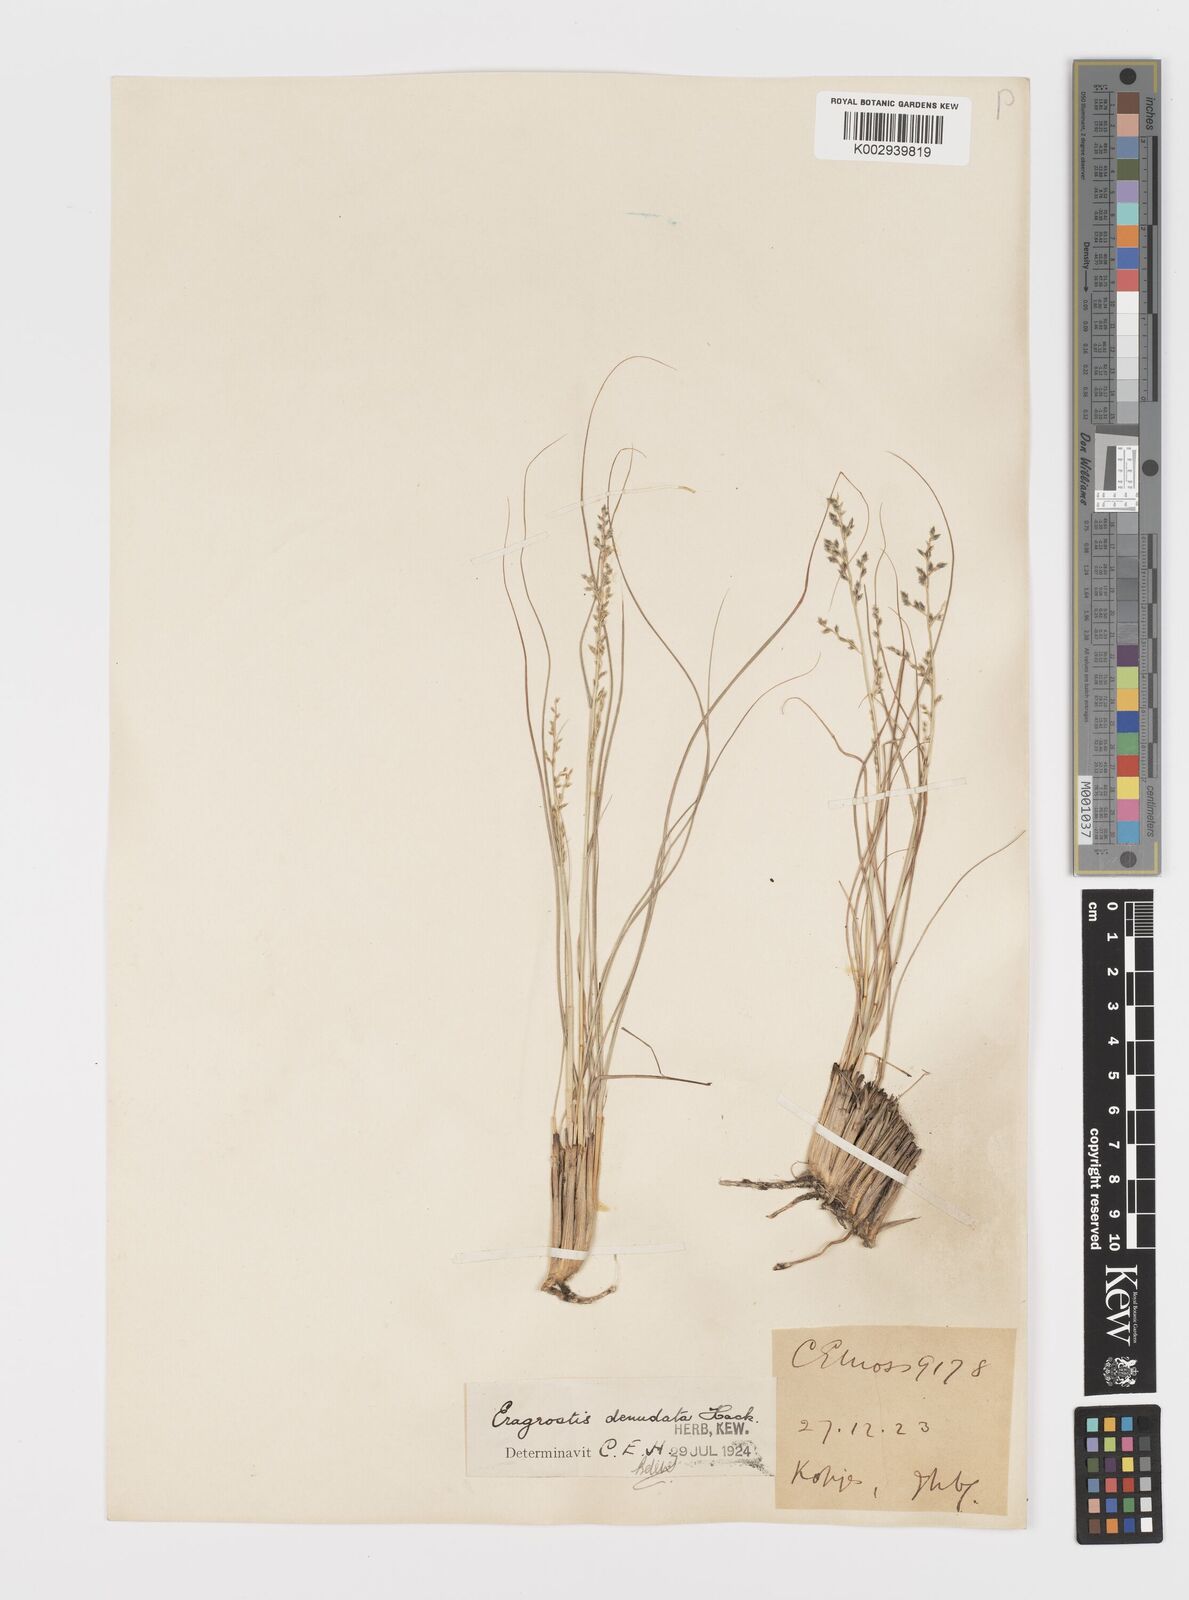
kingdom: Plantae
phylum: Tracheophyta
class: Liliopsida
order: Poales
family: Poaceae
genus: Eragrostis
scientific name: Eragrostis nindensis
